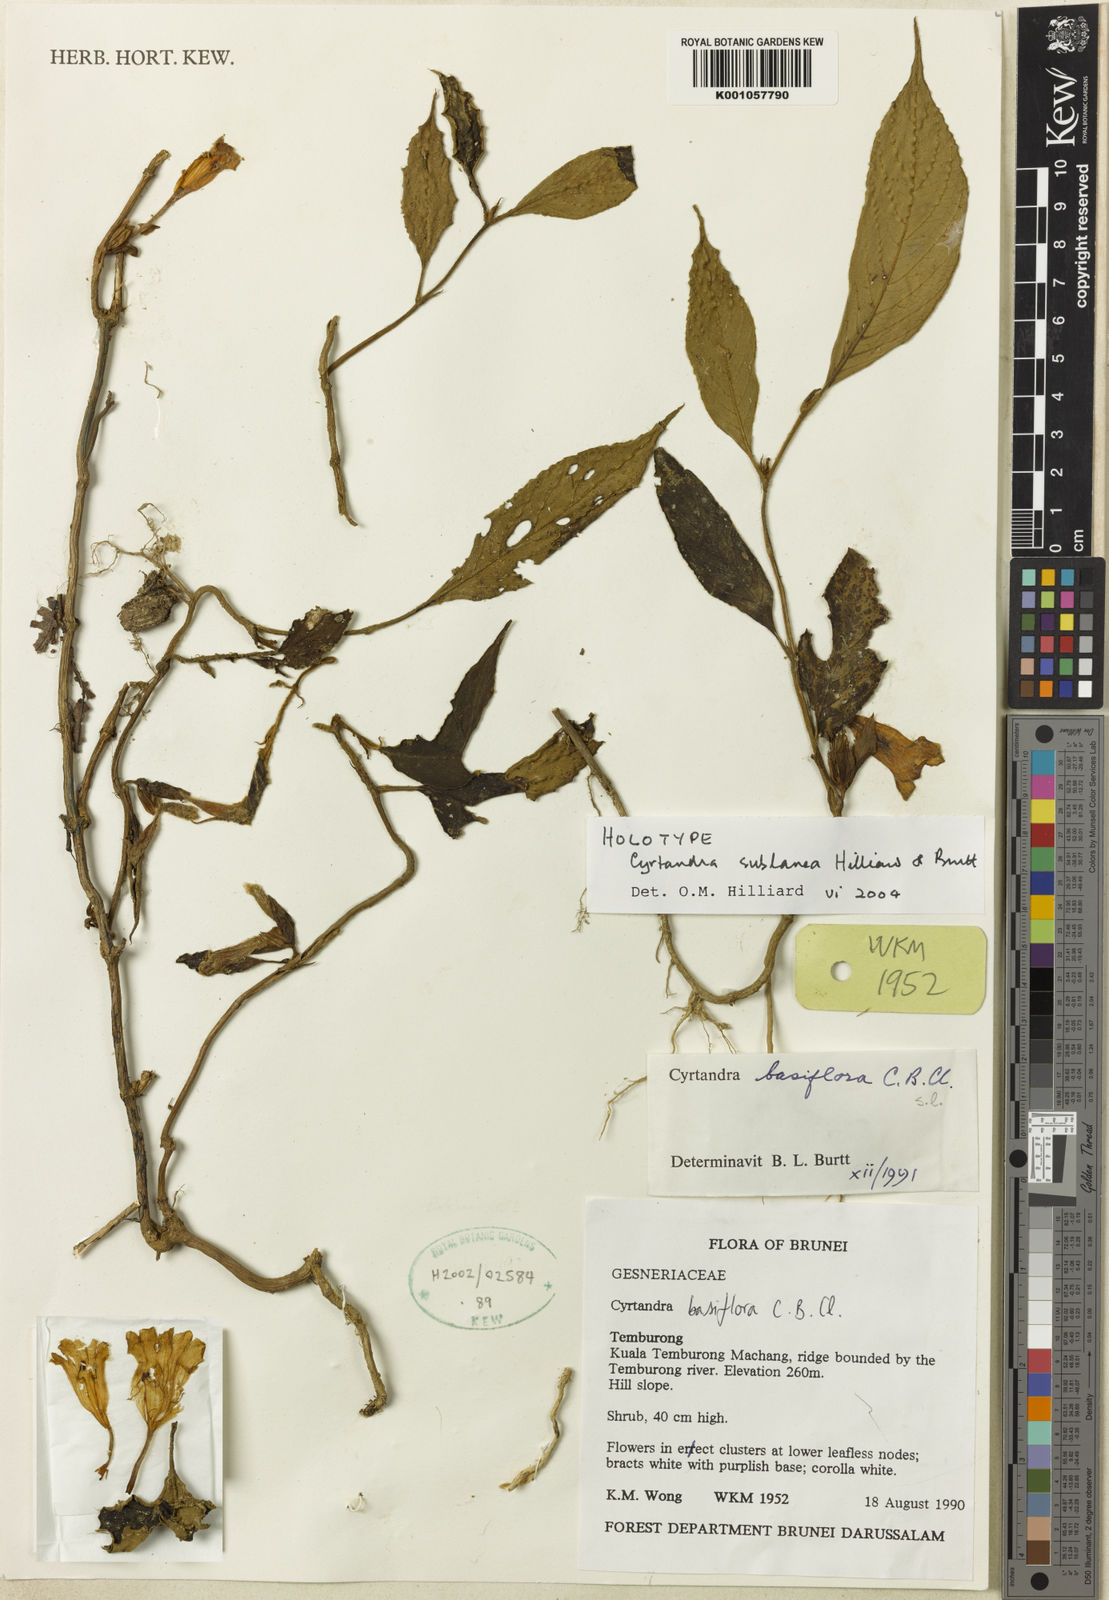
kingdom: Plantae
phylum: Tracheophyta
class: Magnoliopsida
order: Lamiales
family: Gesneriaceae
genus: Cyrtandra
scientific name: Cyrtandra sublanea
